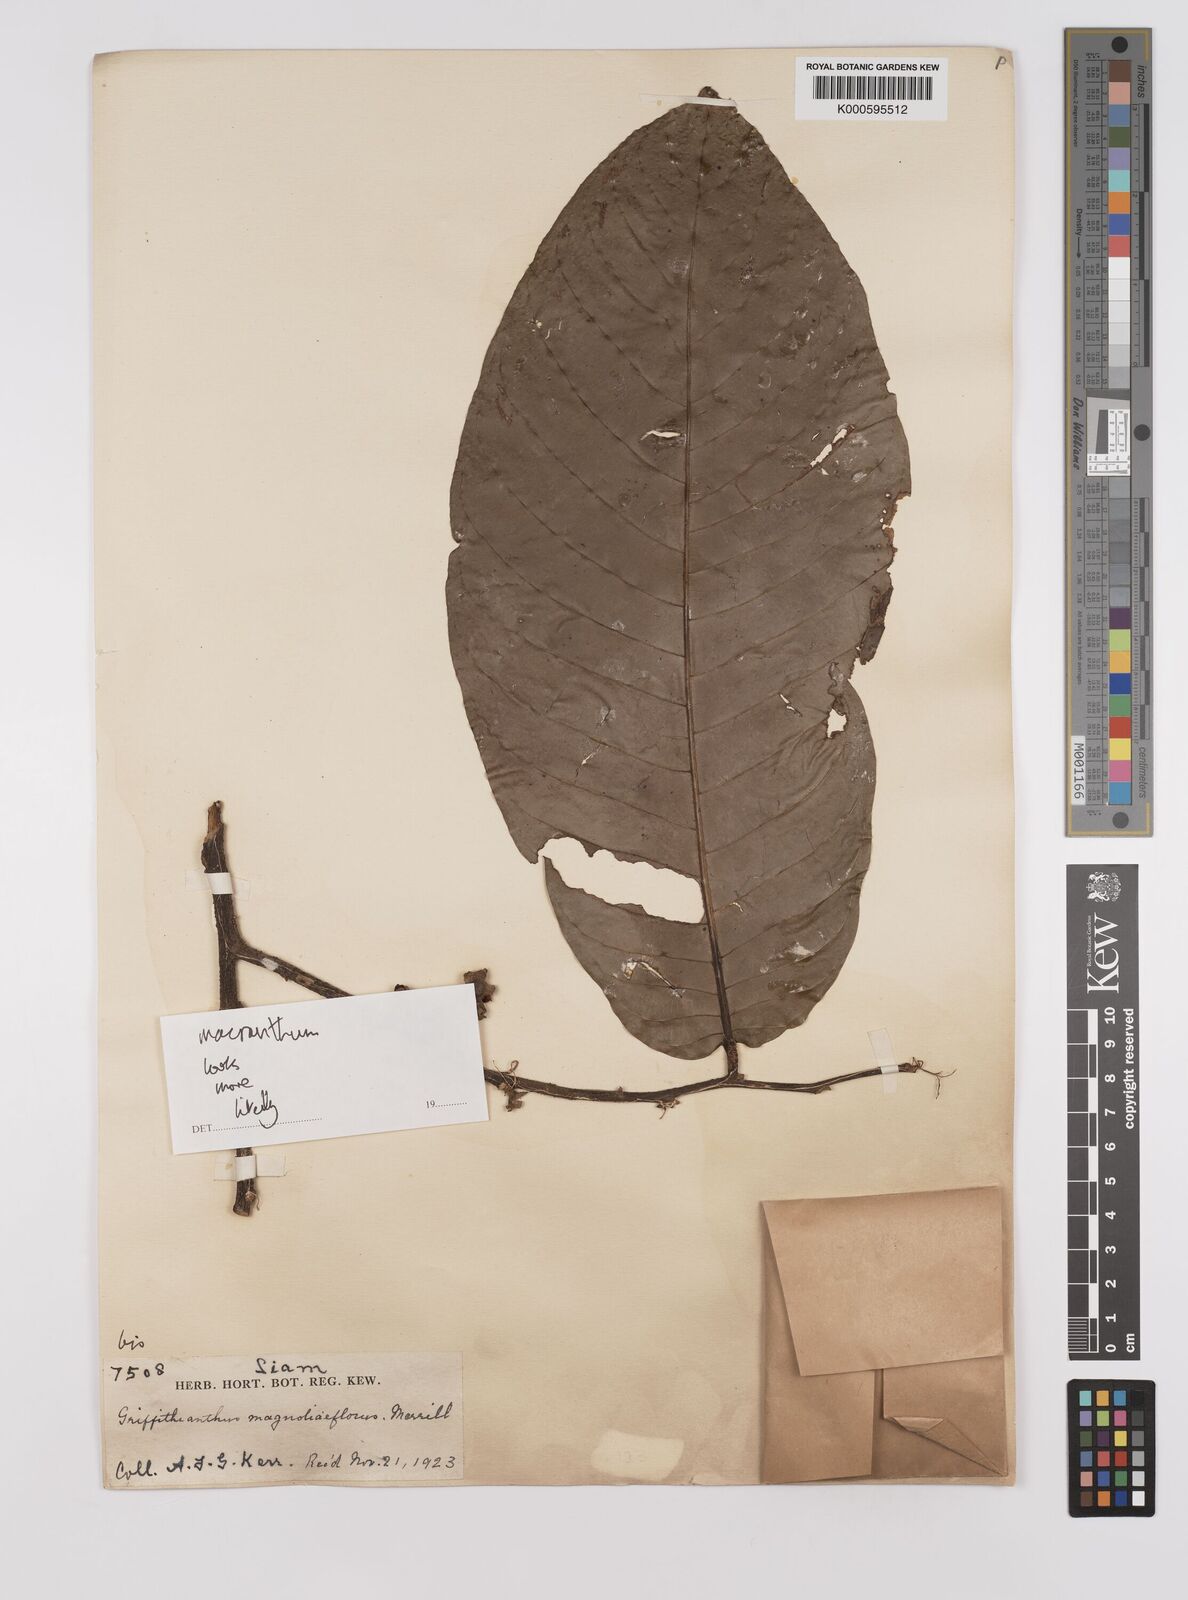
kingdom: Plantae
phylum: Tracheophyta
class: Magnoliopsida
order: Magnoliales
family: Annonaceae
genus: Enicosanthum
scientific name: Enicosanthum
